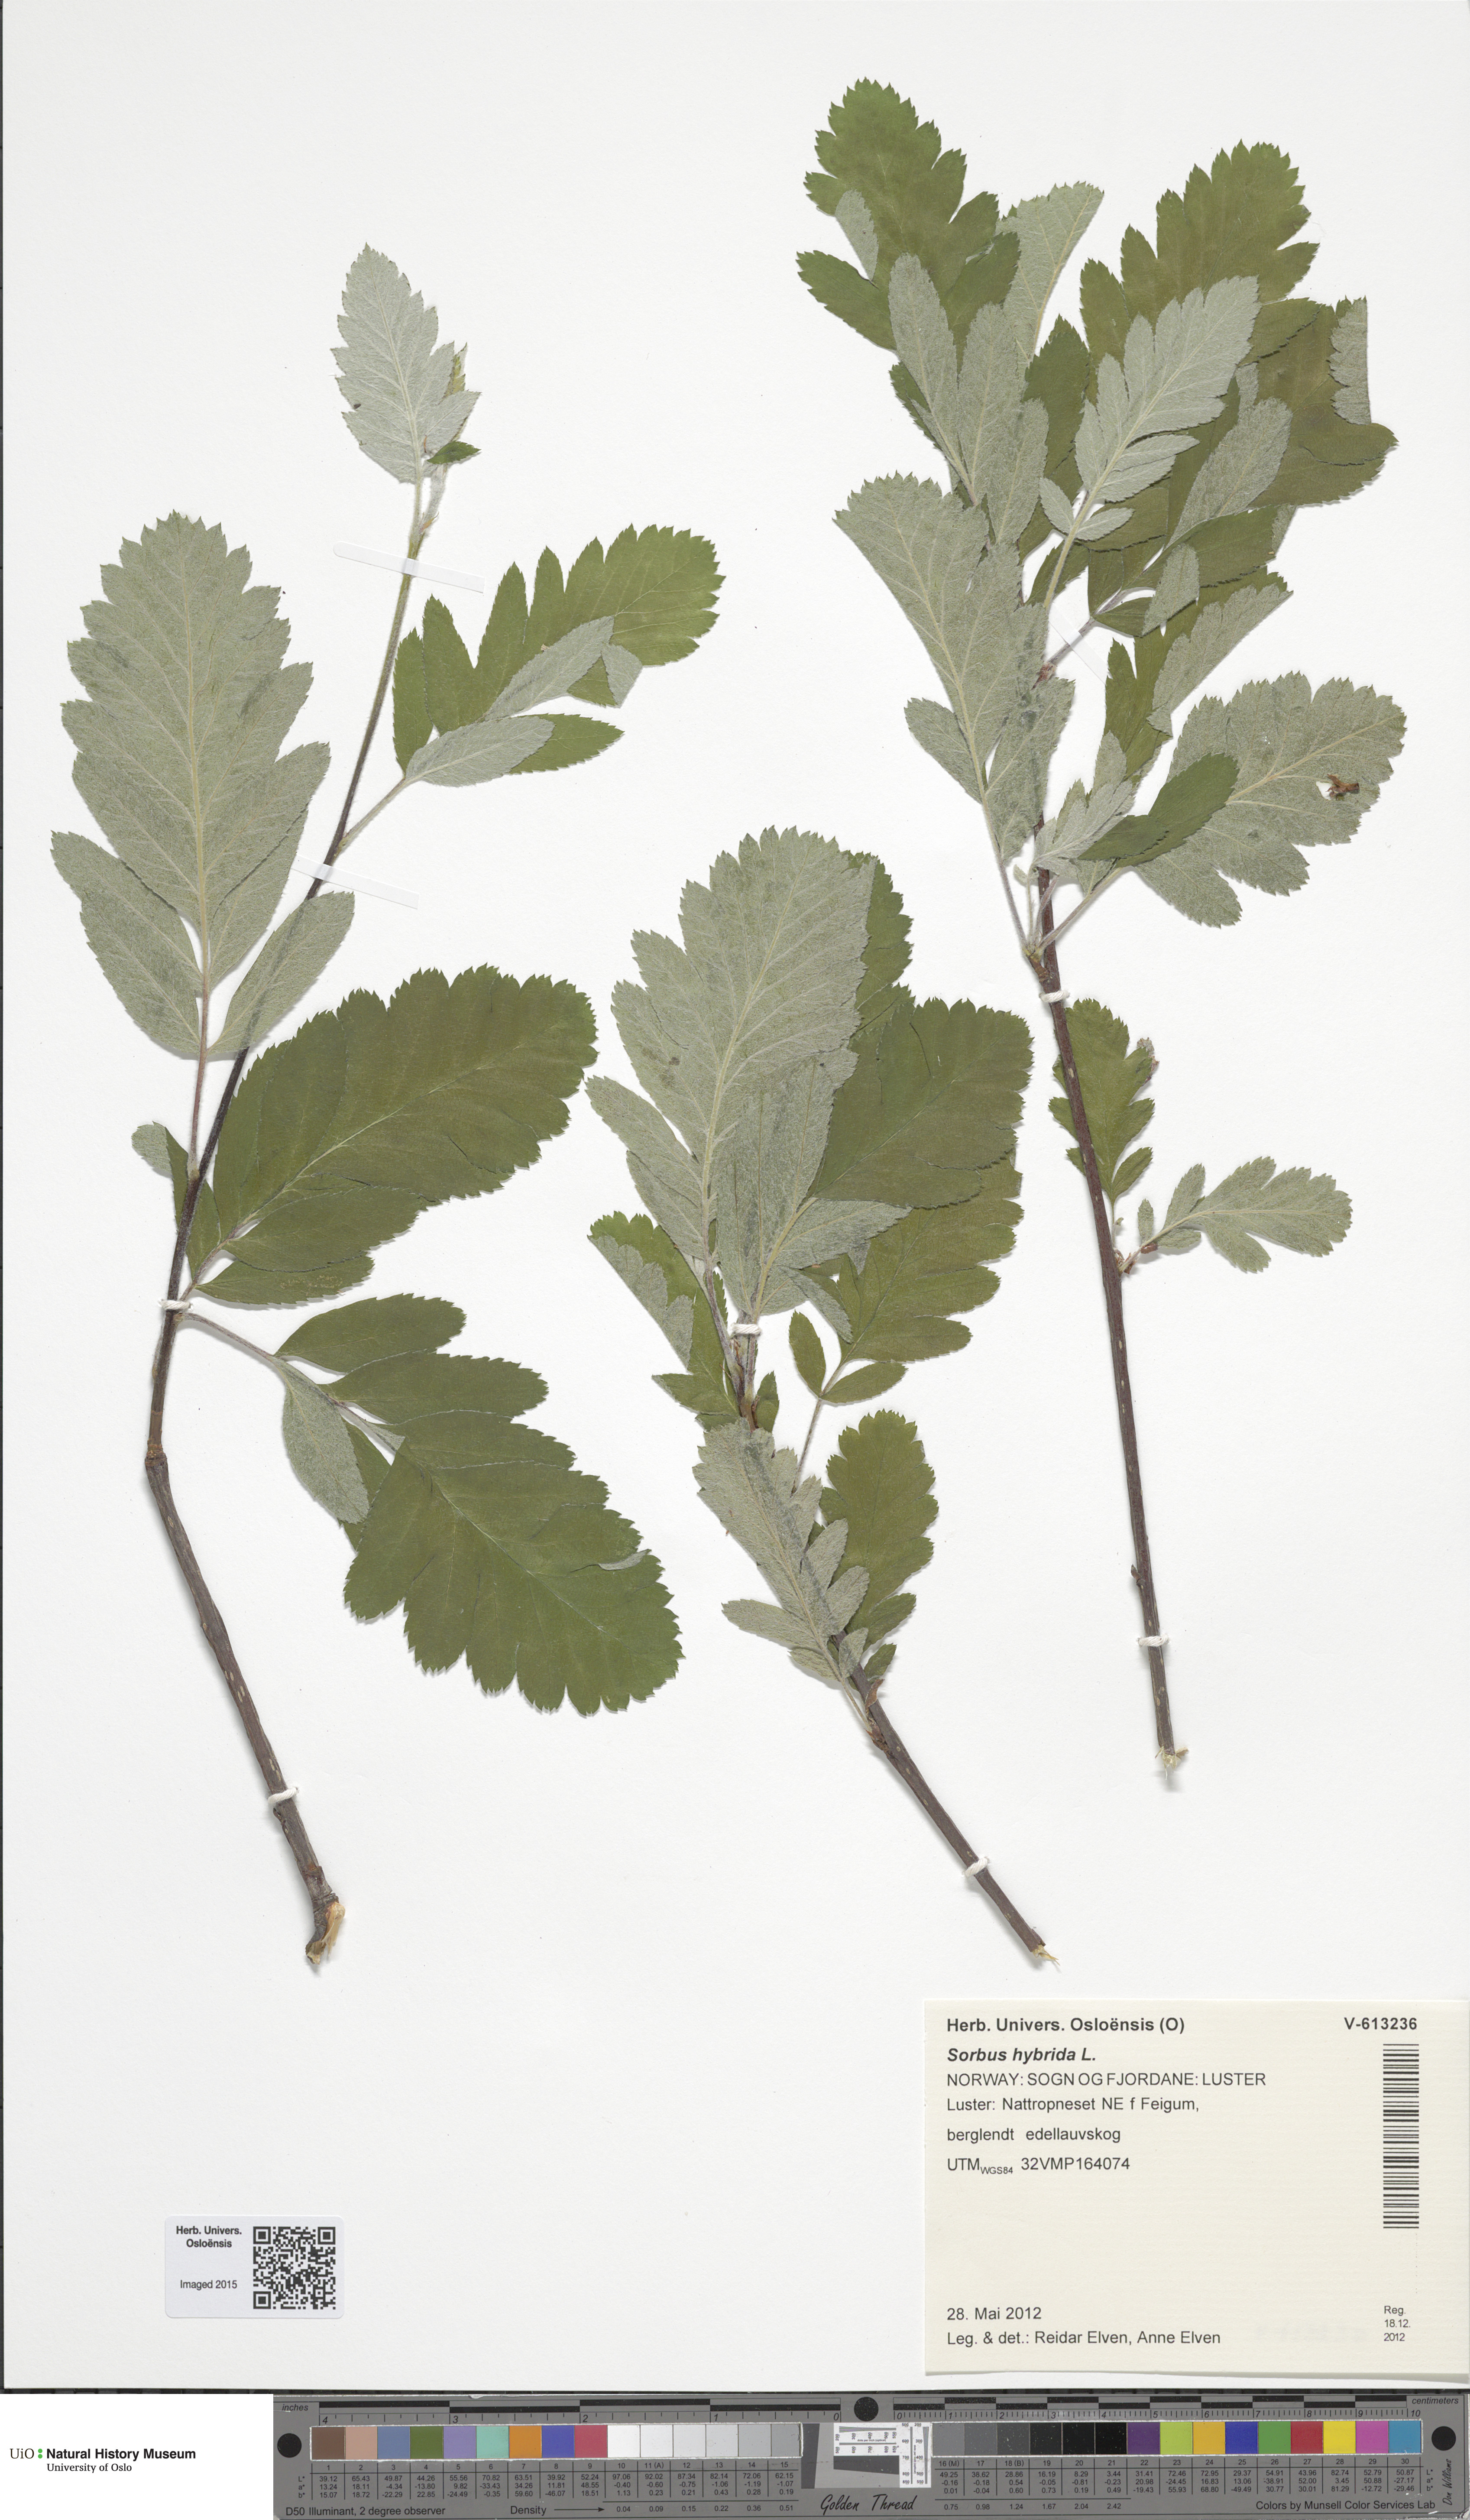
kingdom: Plantae
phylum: Tracheophyta
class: Magnoliopsida
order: Rosales
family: Rosaceae
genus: Hedlundia
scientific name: Hedlundia hybrida
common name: Swedish service-tree
